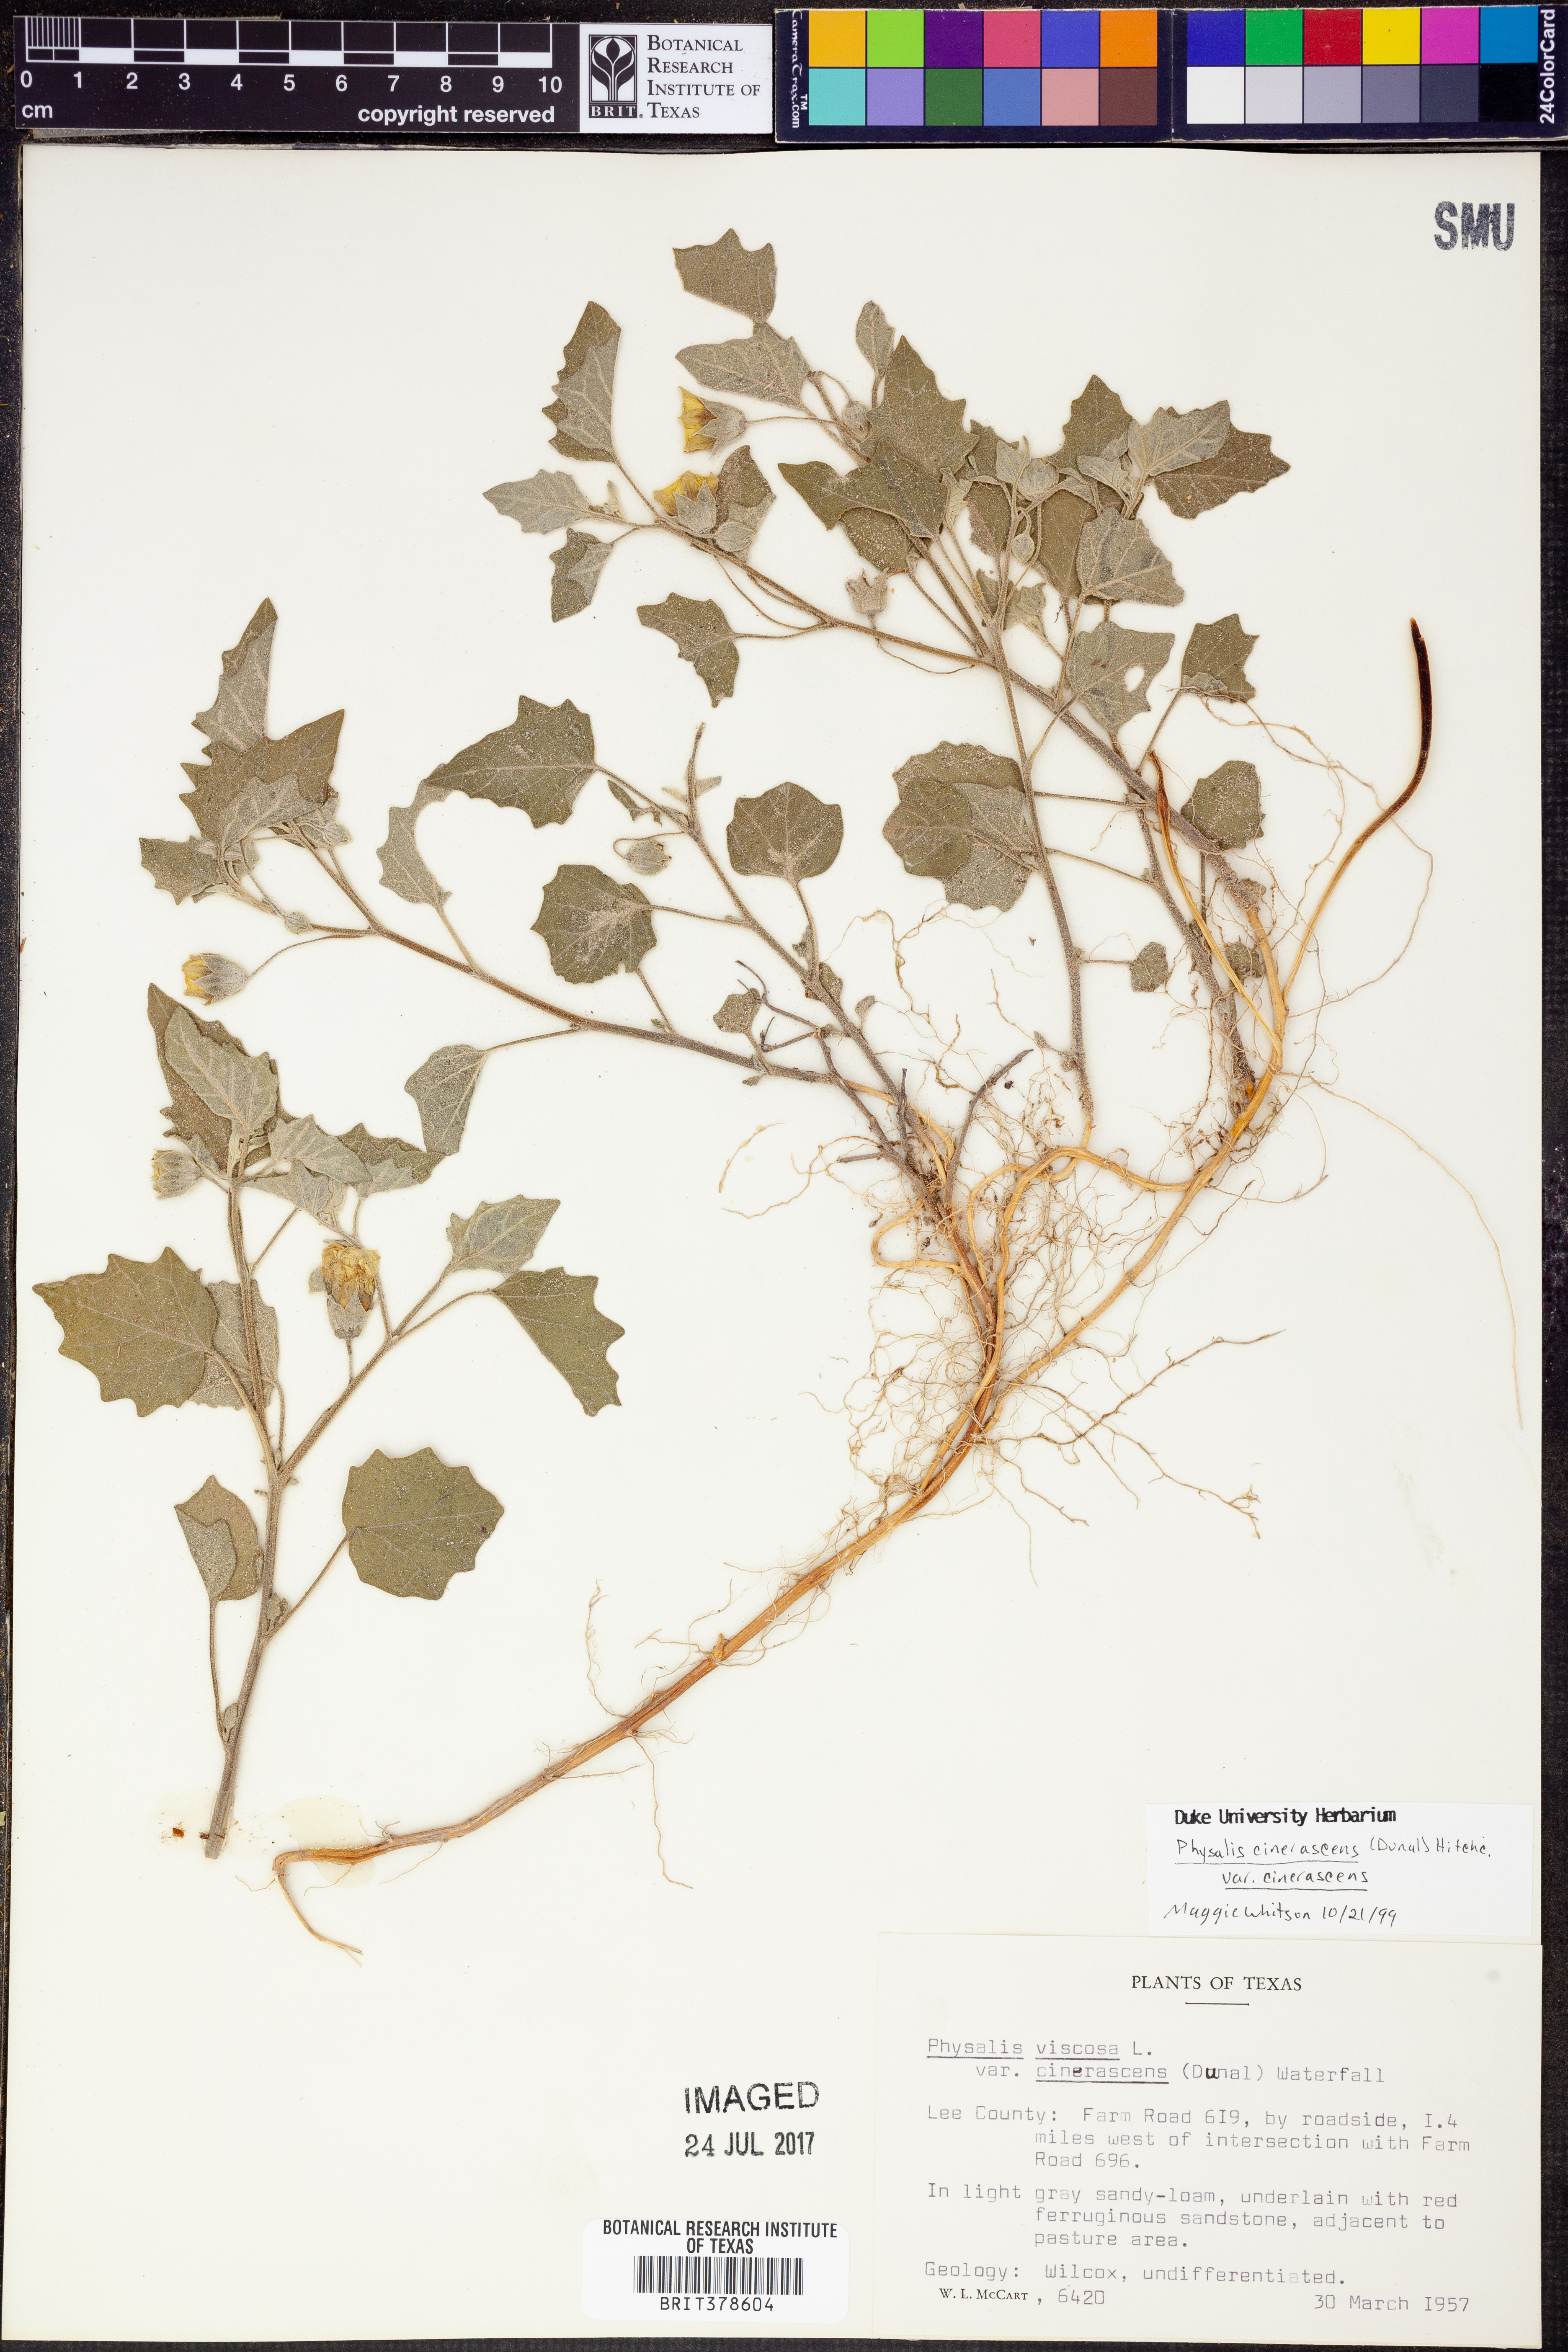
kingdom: Plantae
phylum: Tracheophyta
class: Magnoliopsida
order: Solanales
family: Solanaceae
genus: Physalis
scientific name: Physalis cinerascens
